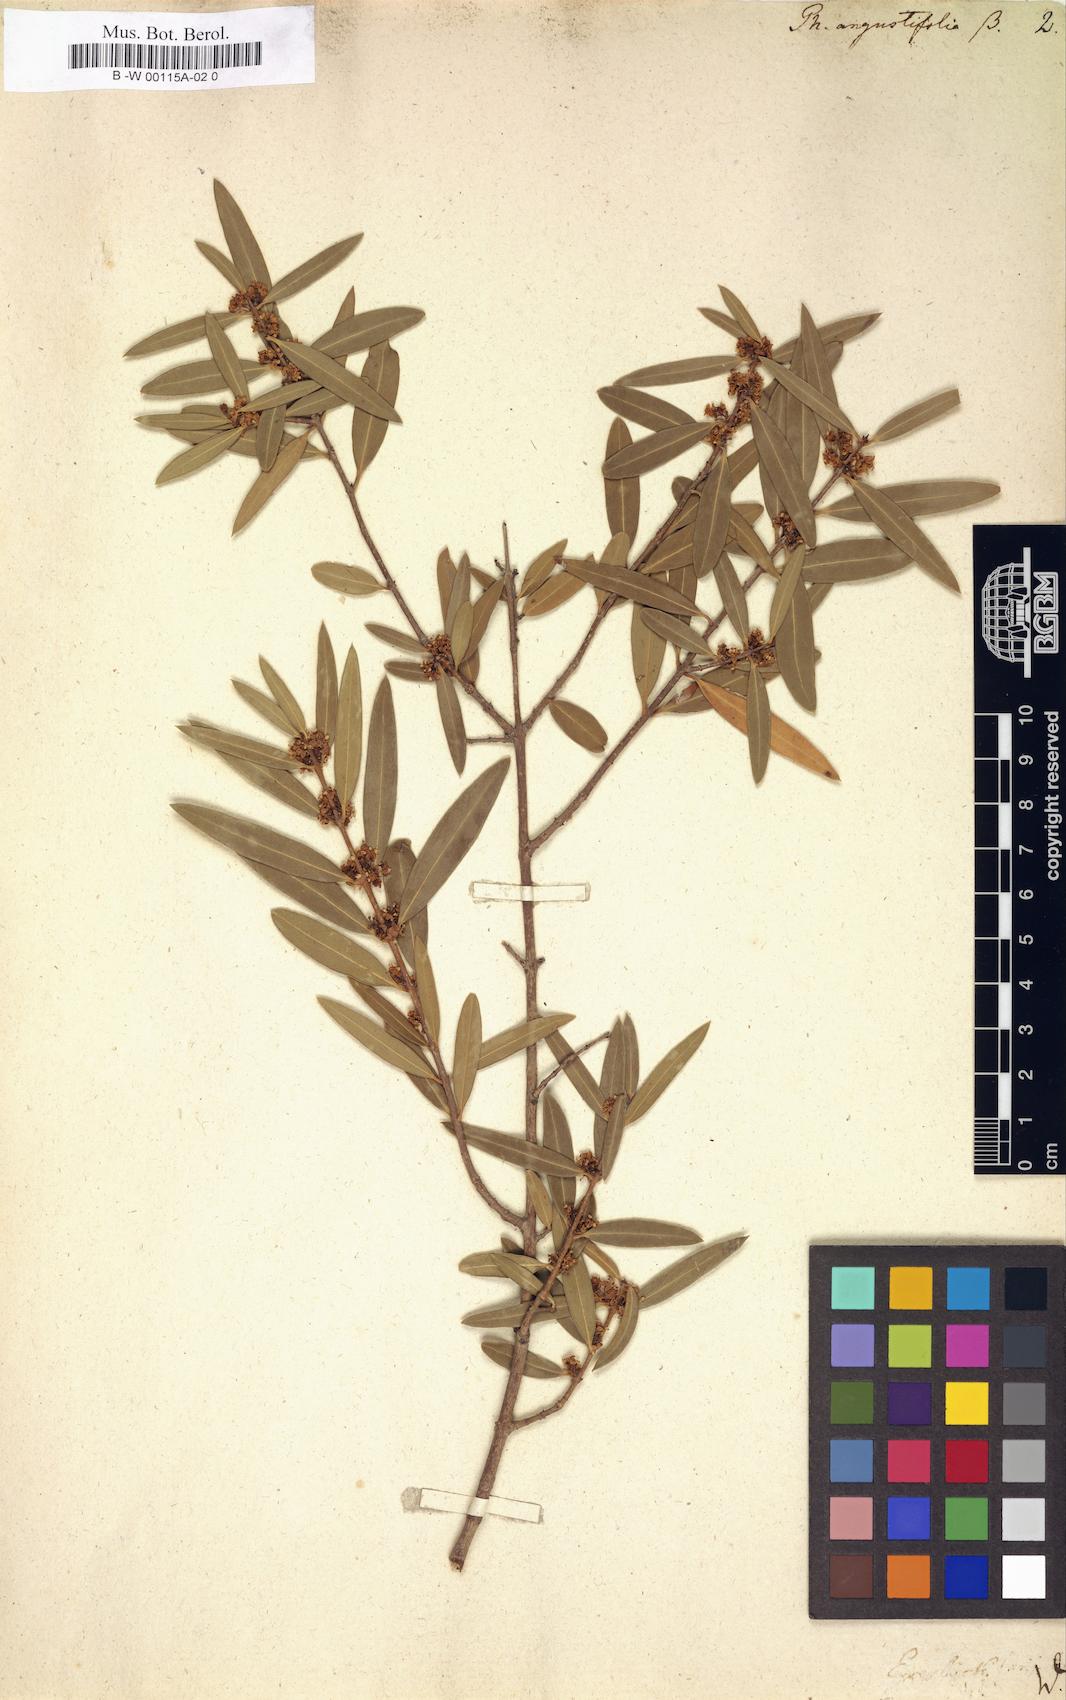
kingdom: Plantae
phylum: Tracheophyta
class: Magnoliopsida
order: Lamiales
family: Oleaceae
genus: Phillyrea
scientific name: Phillyrea angustifolia
